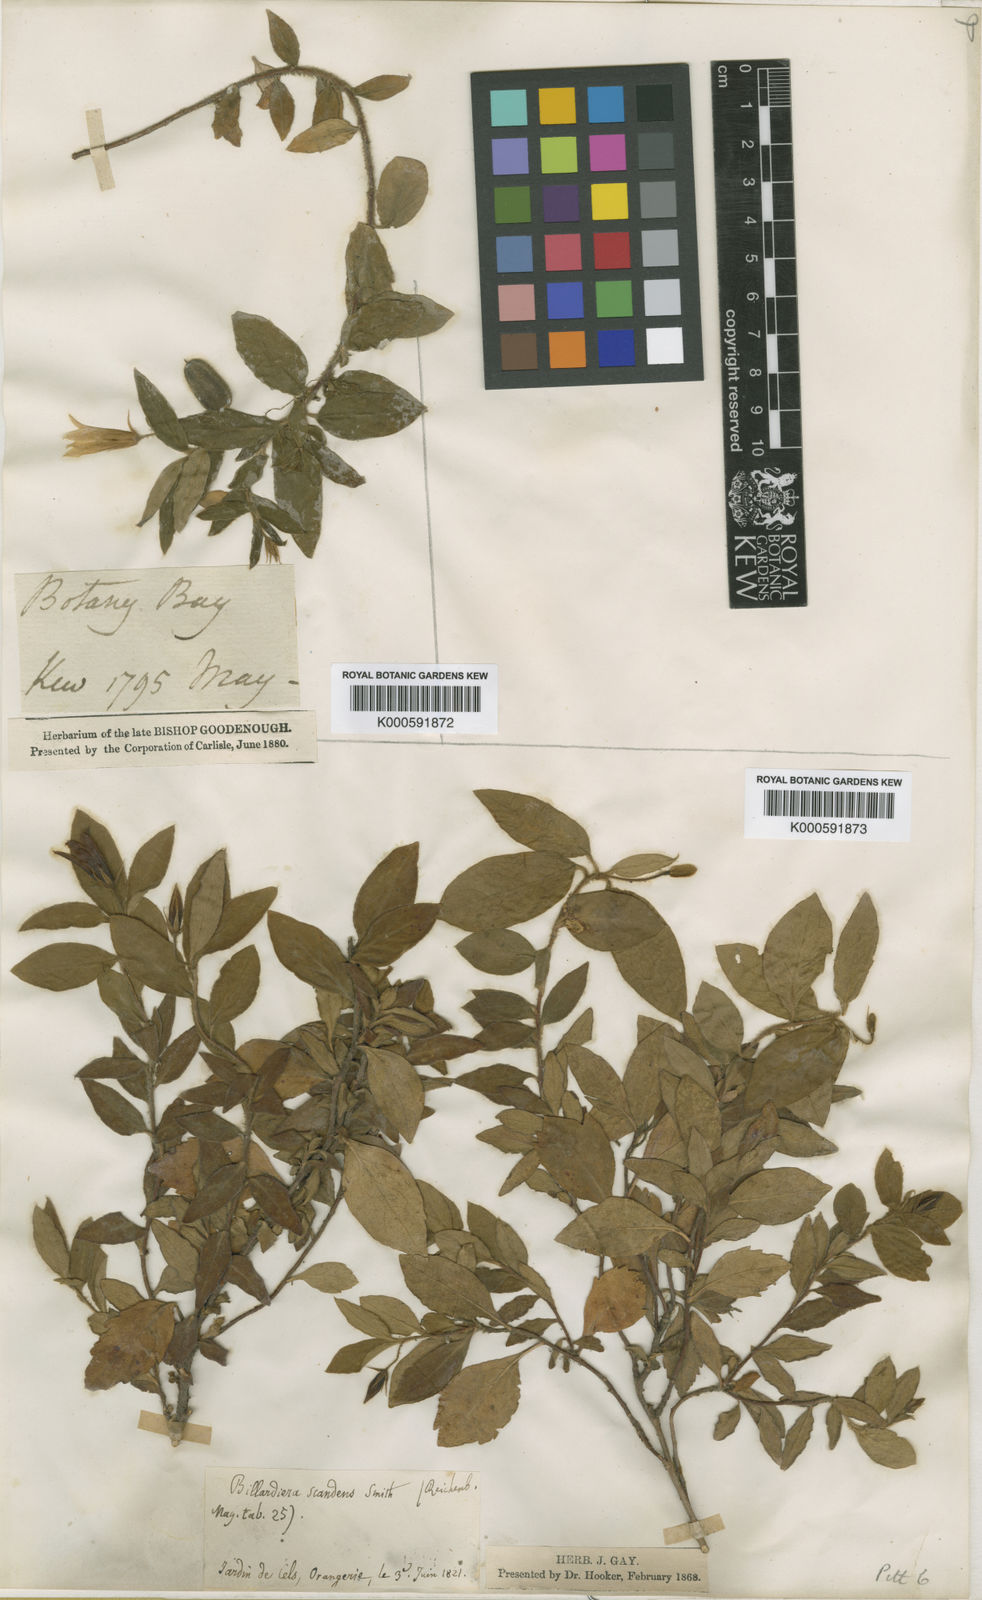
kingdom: Plantae
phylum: Tracheophyta
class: Magnoliopsida
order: Apiales
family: Pittosporaceae
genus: Billardiera
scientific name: Billardiera scandens
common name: Apple-berry
